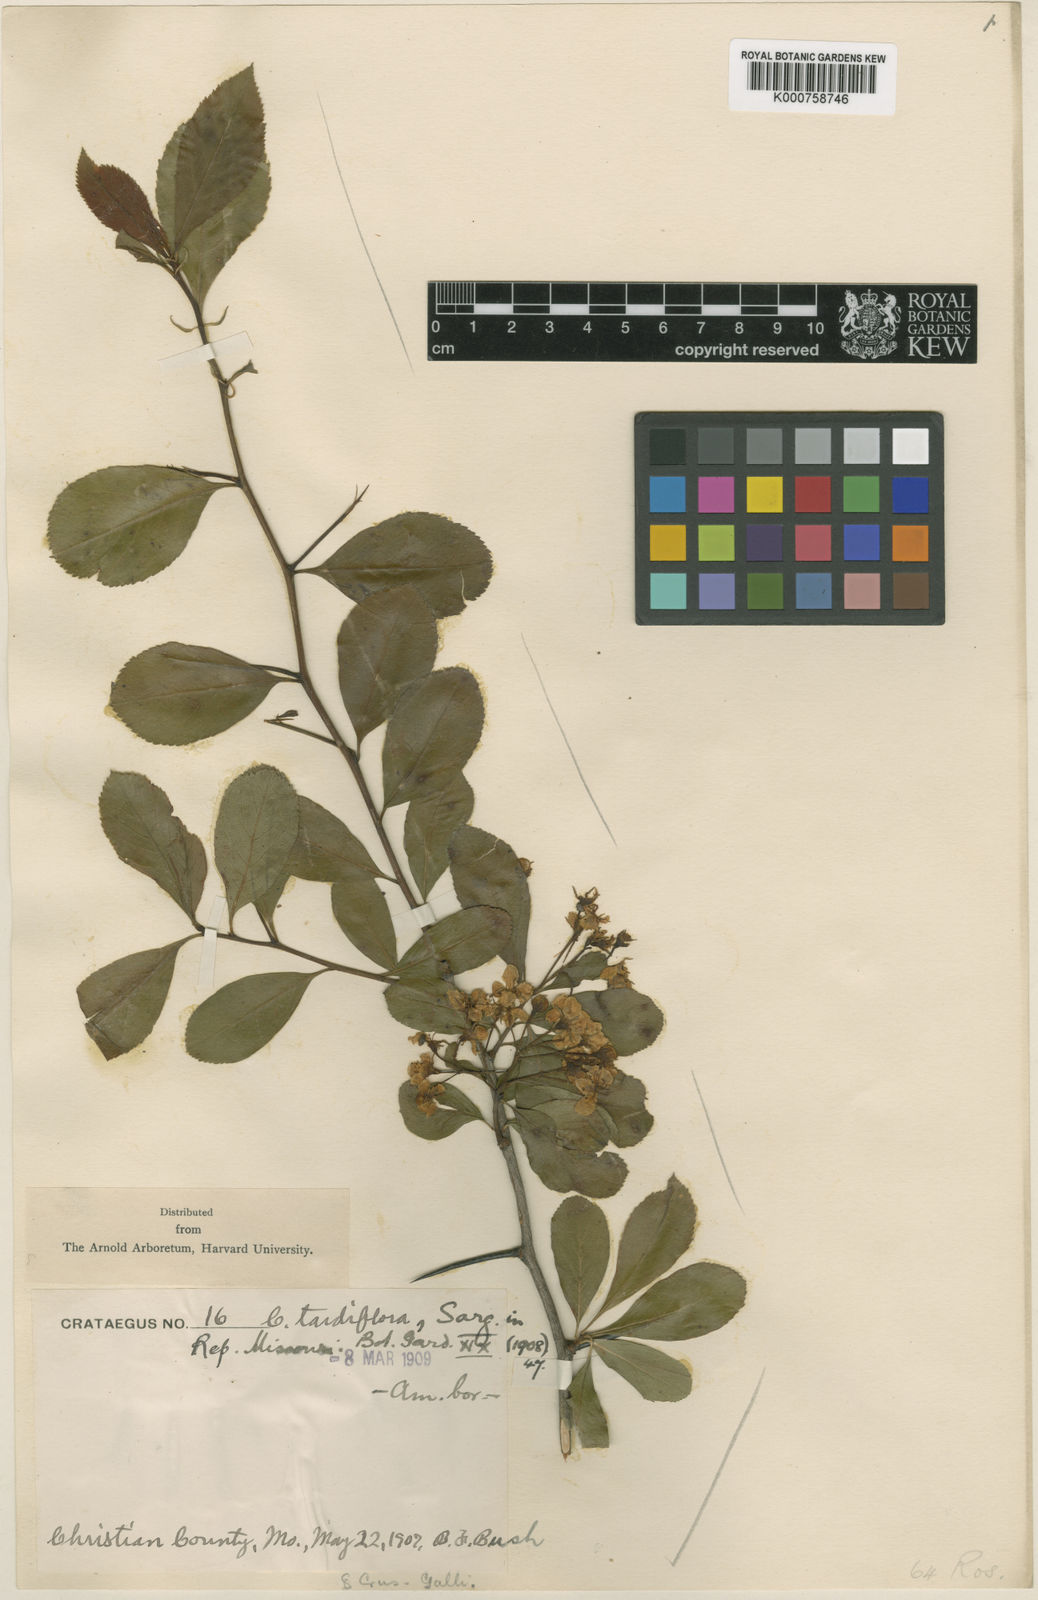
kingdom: Plantae
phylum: Tracheophyta
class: Magnoliopsida
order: Rosales
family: Rosaceae
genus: Crataegus
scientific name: Crataegus tardiflora
